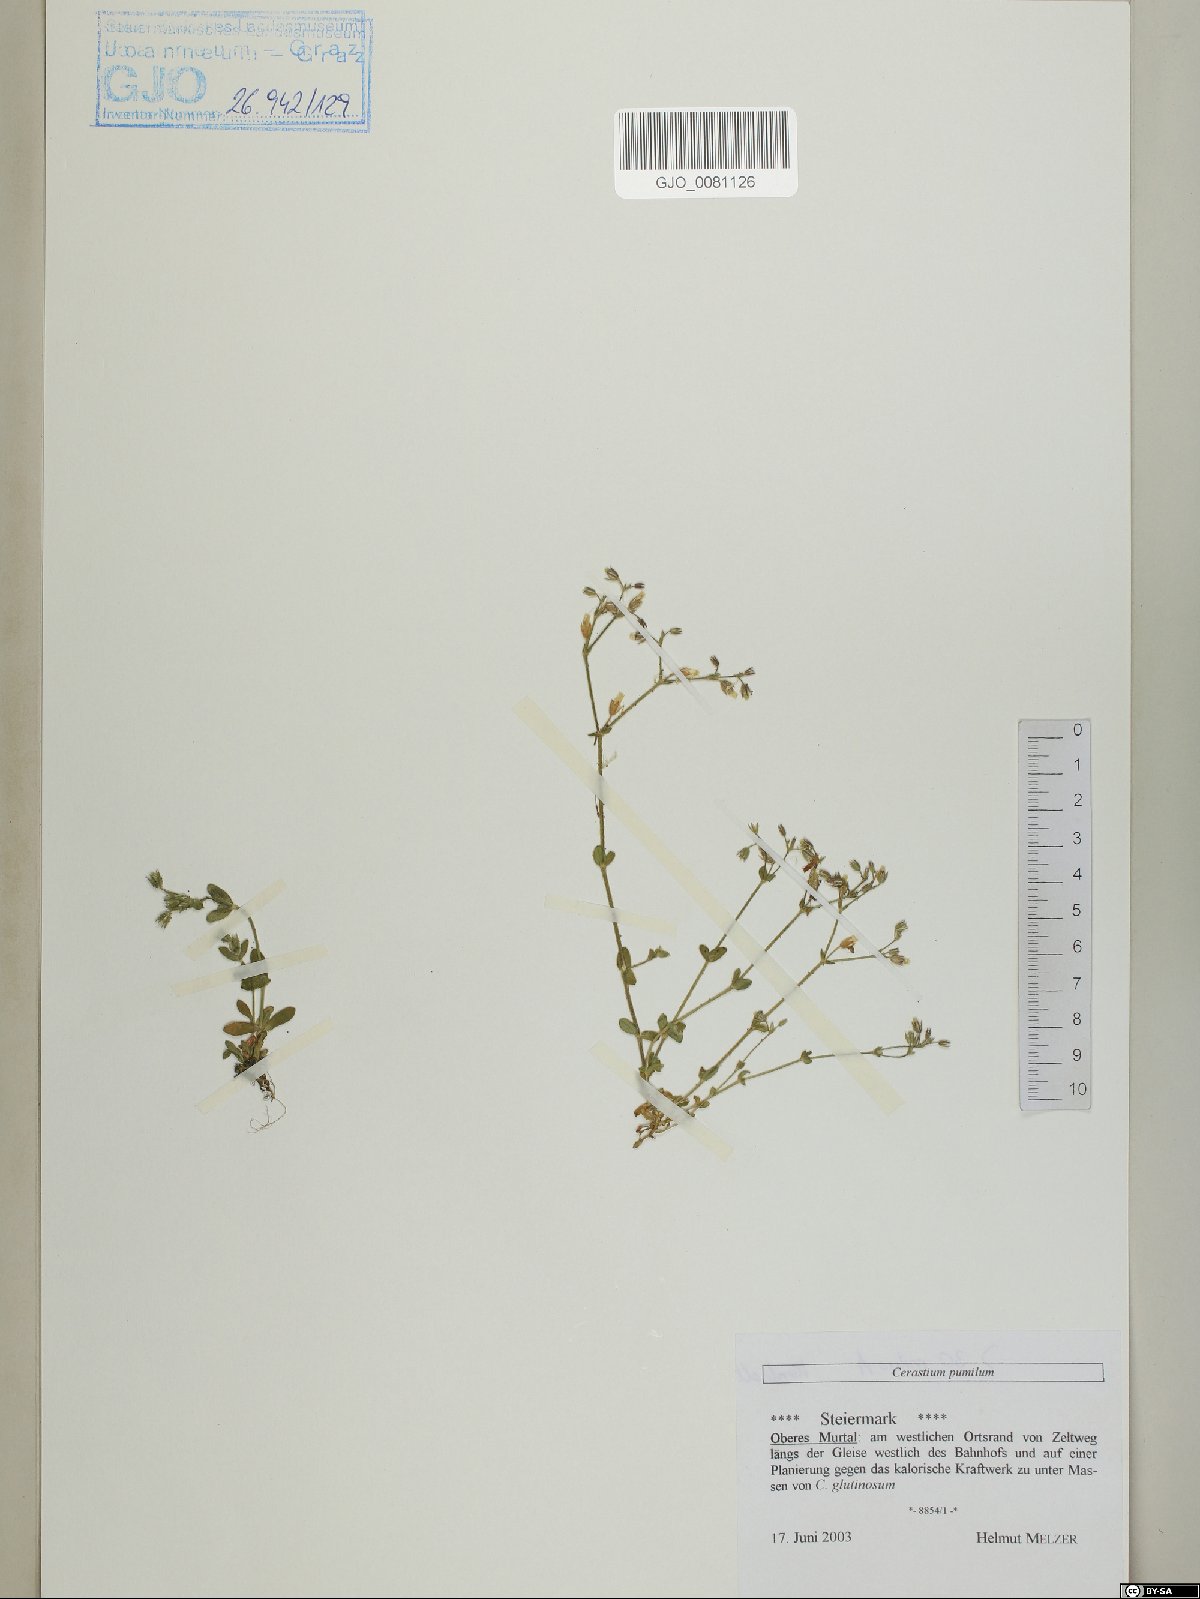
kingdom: Plantae
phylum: Tracheophyta
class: Magnoliopsida
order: Caryophyllales
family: Caryophyllaceae
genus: Cerastium
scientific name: Cerastium pumilum
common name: Dwarf mouse-ear
